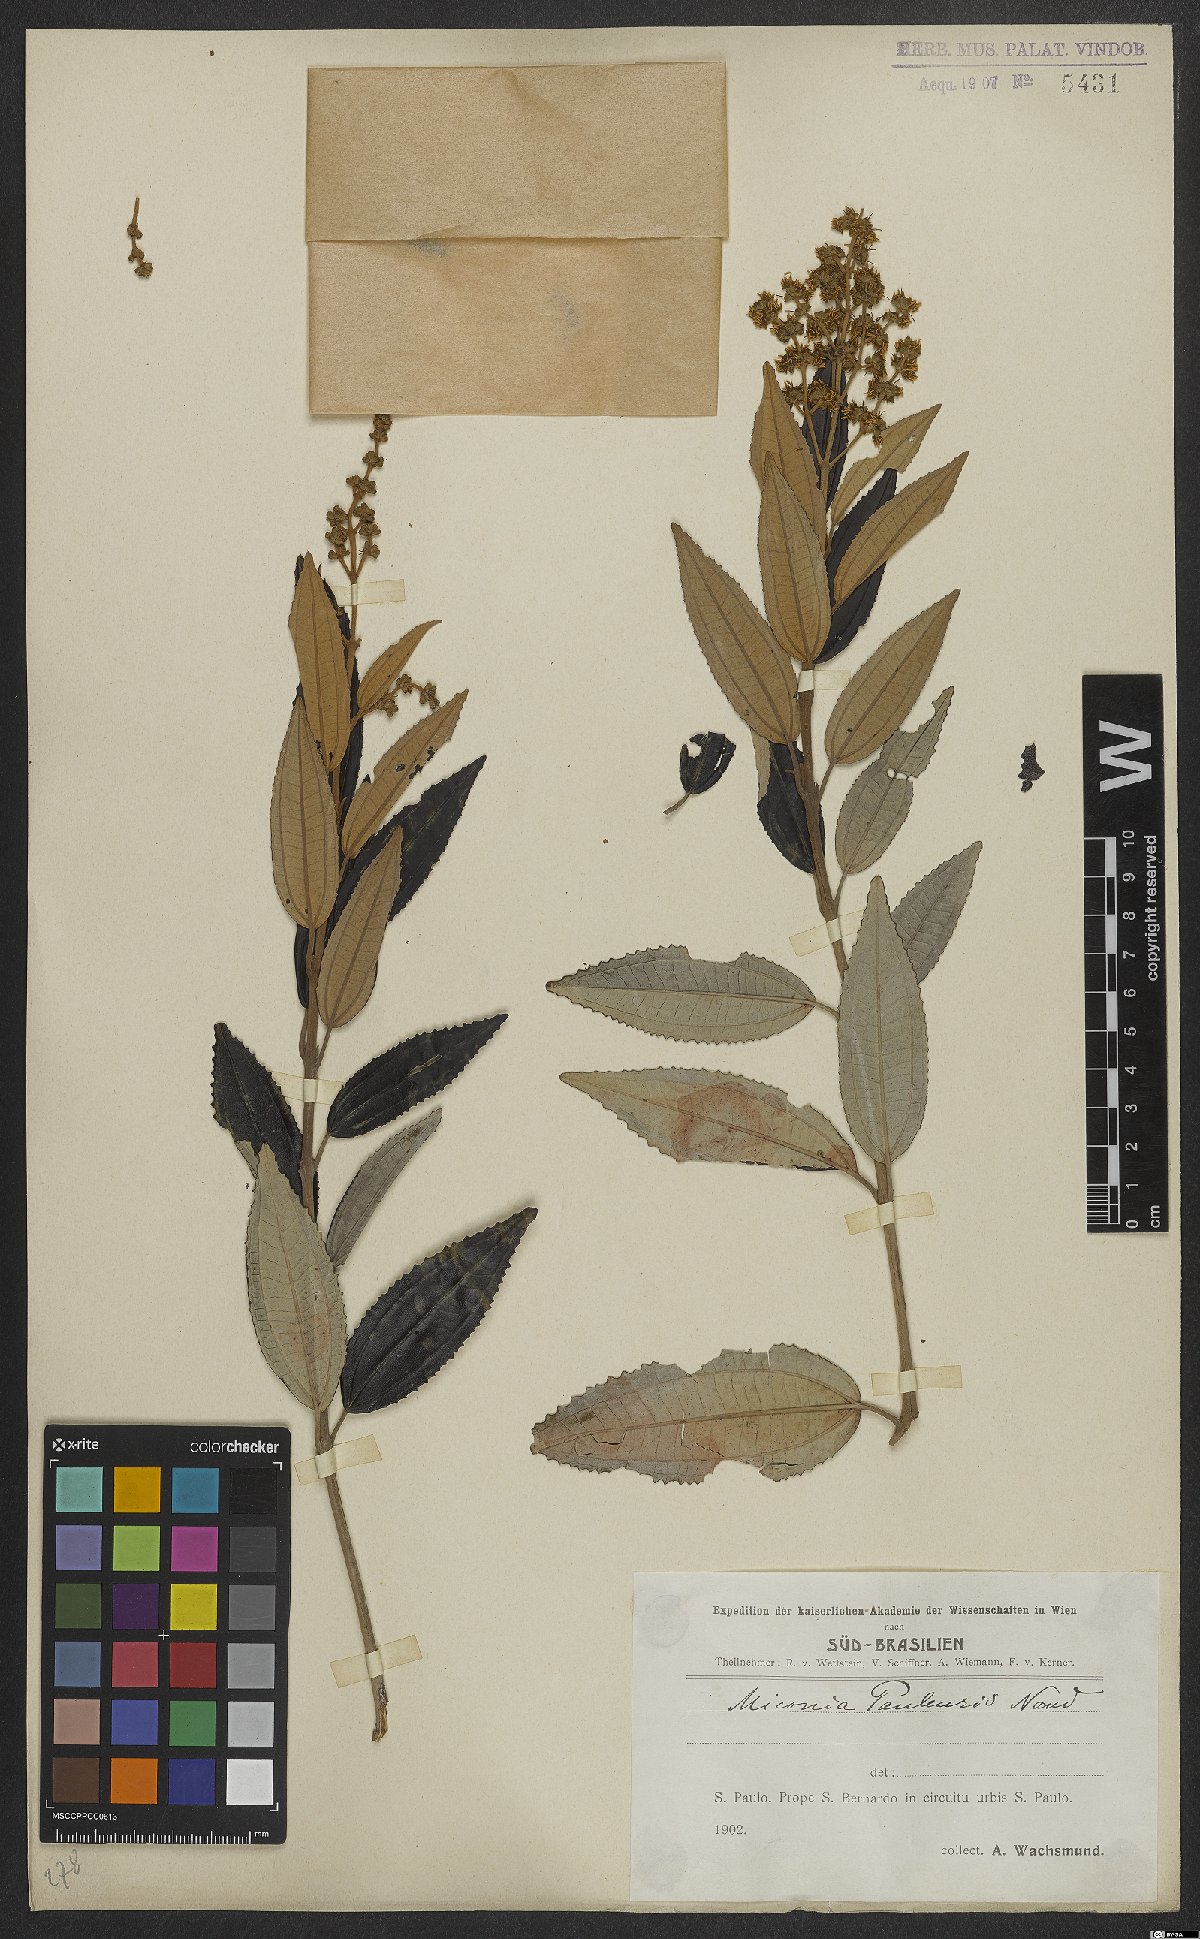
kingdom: Plantae
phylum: Tracheophyta
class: Magnoliopsida
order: Myrtales
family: Melastomataceae
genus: Miconia
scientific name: Miconia cinerascens
